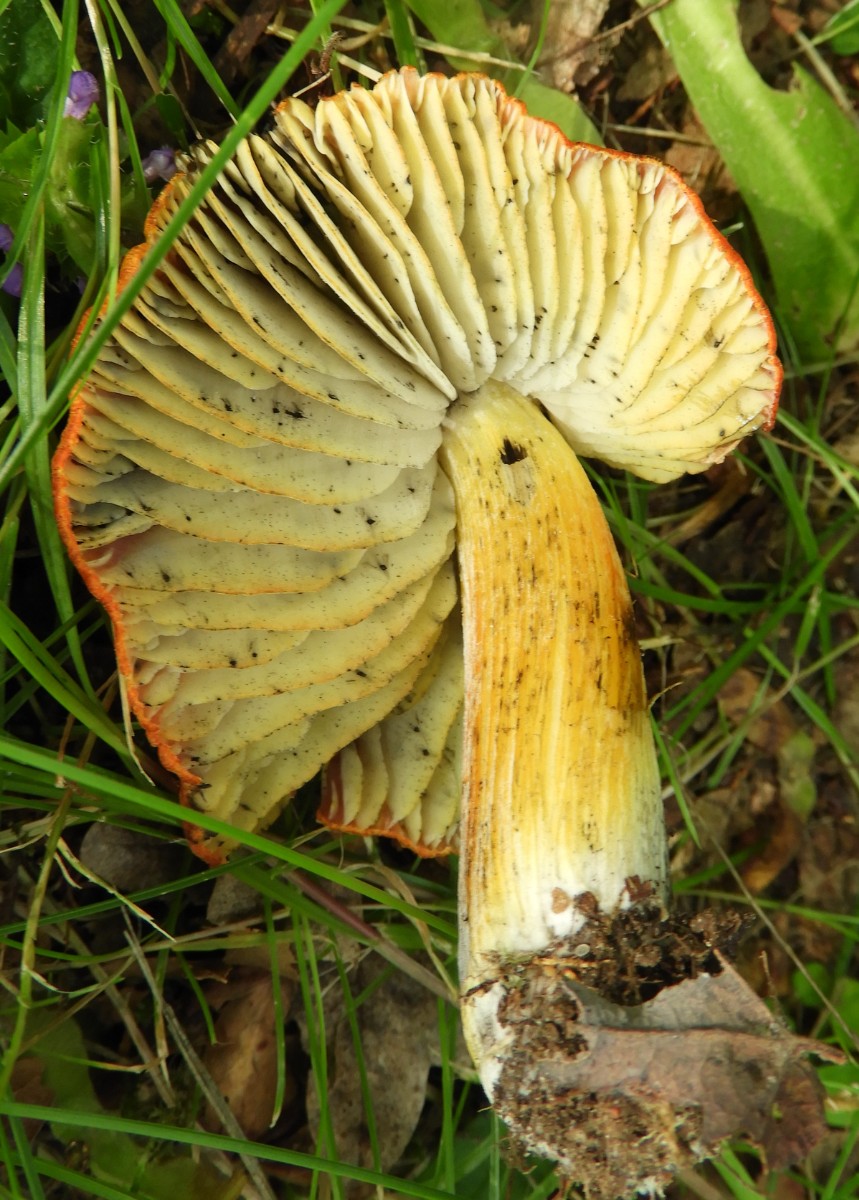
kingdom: Fungi
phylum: Basidiomycota
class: Agaricomycetes
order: Agaricales
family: Hygrophoraceae
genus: Hygrocybe
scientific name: Hygrocybe conica
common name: kegle-vokshat
